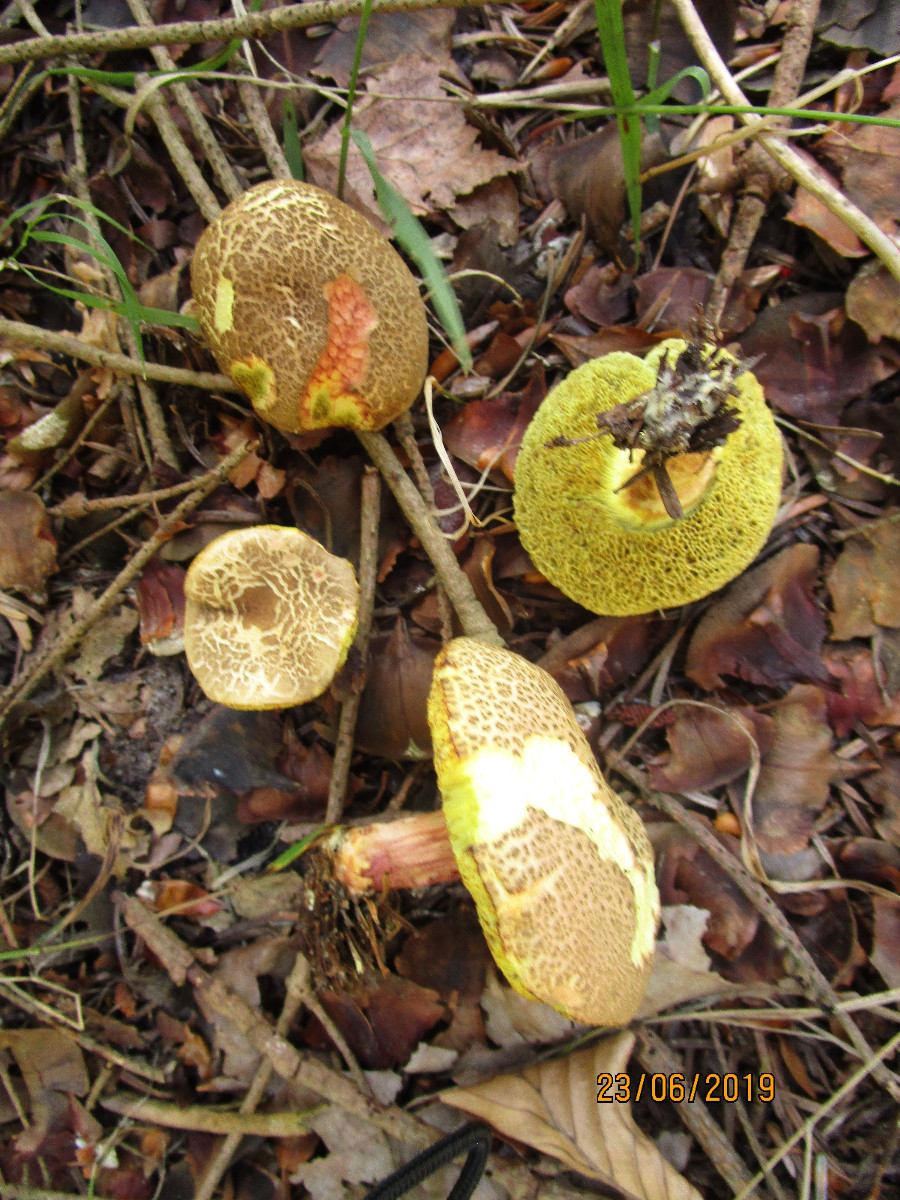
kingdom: Fungi
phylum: Basidiomycota
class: Agaricomycetes
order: Boletales
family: Boletaceae
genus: Xerocomellus
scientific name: Xerocomellus chrysenteron
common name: rødsprukken rørhat
